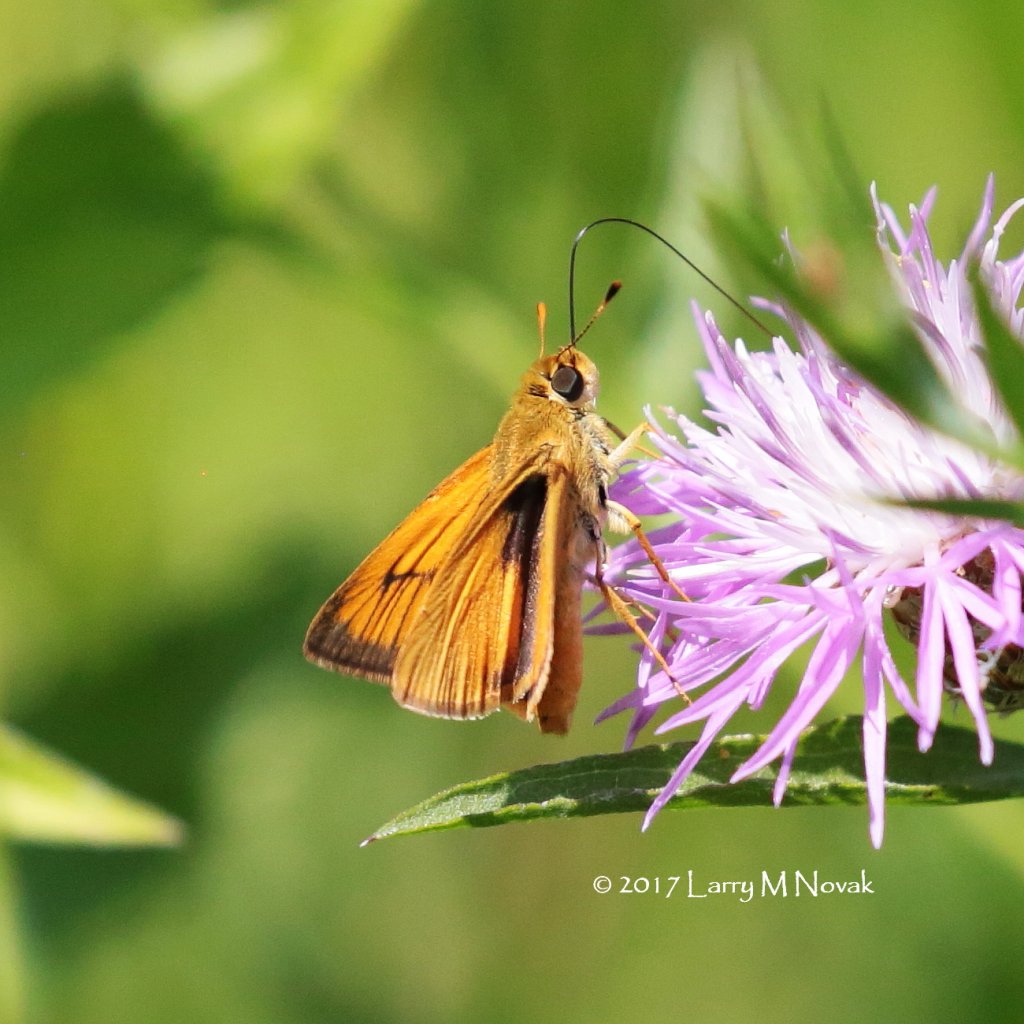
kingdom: Animalia
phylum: Arthropoda
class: Insecta
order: Lepidoptera
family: Hesperiidae
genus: Atrytone
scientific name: Atrytone delaware
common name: Delaware Skipper
